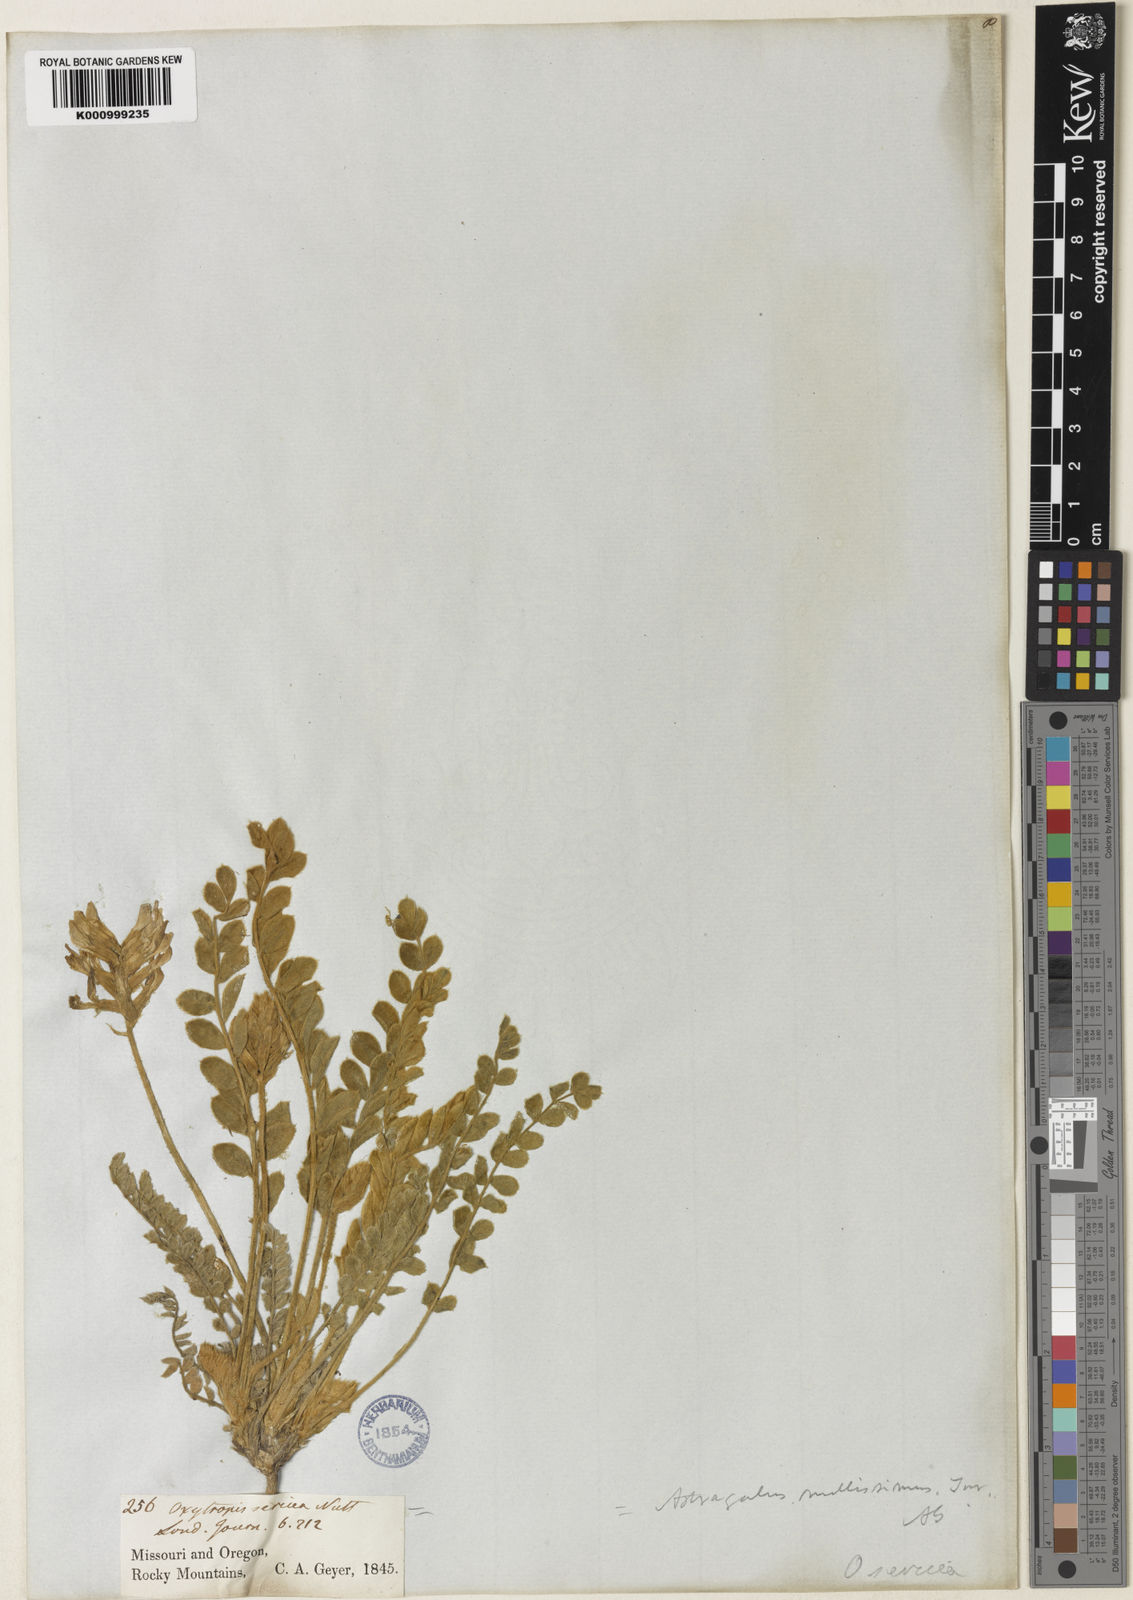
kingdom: Plantae
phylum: Tracheophyta
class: Magnoliopsida
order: Fabales
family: Fabaceae
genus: Astragalus
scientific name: Astragalus mollissimus
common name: Woolly locoweed
